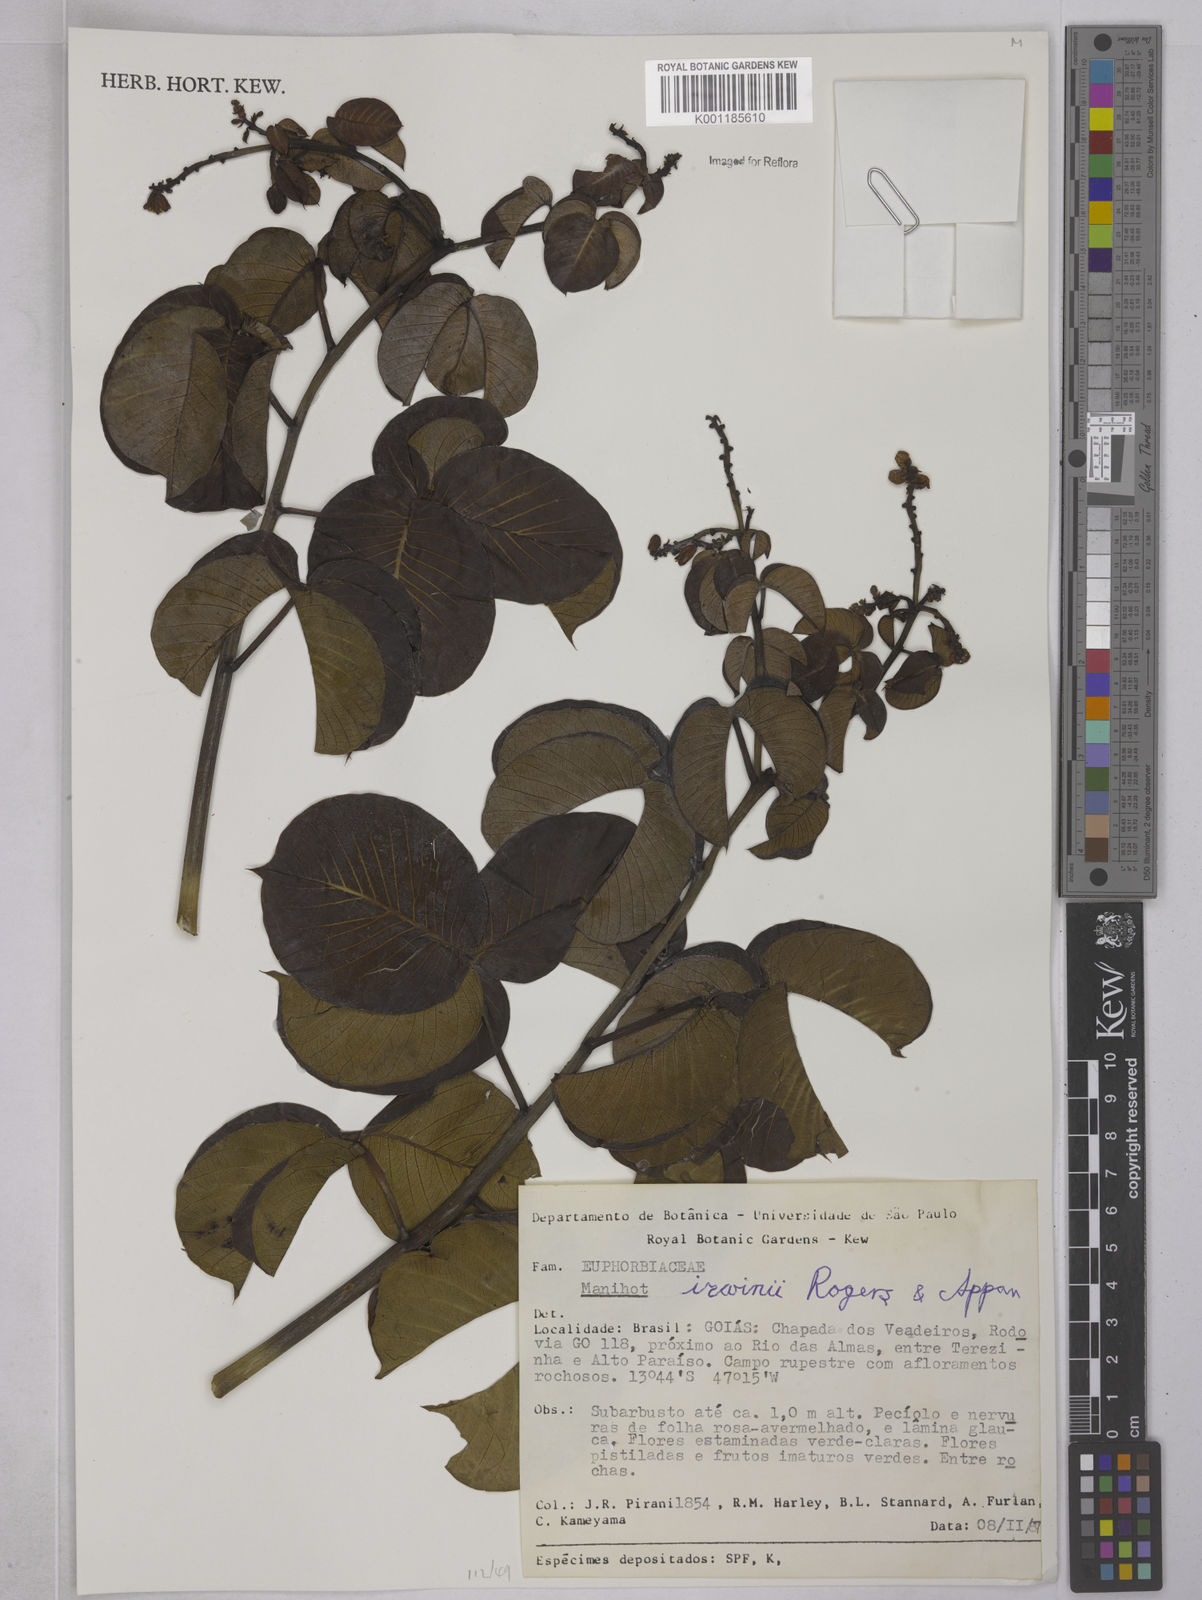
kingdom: Plantae
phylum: Tracheophyta
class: Magnoliopsida
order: Malpighiales
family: Euphorbiaceae
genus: Manihot
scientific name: Manihot irwinii
